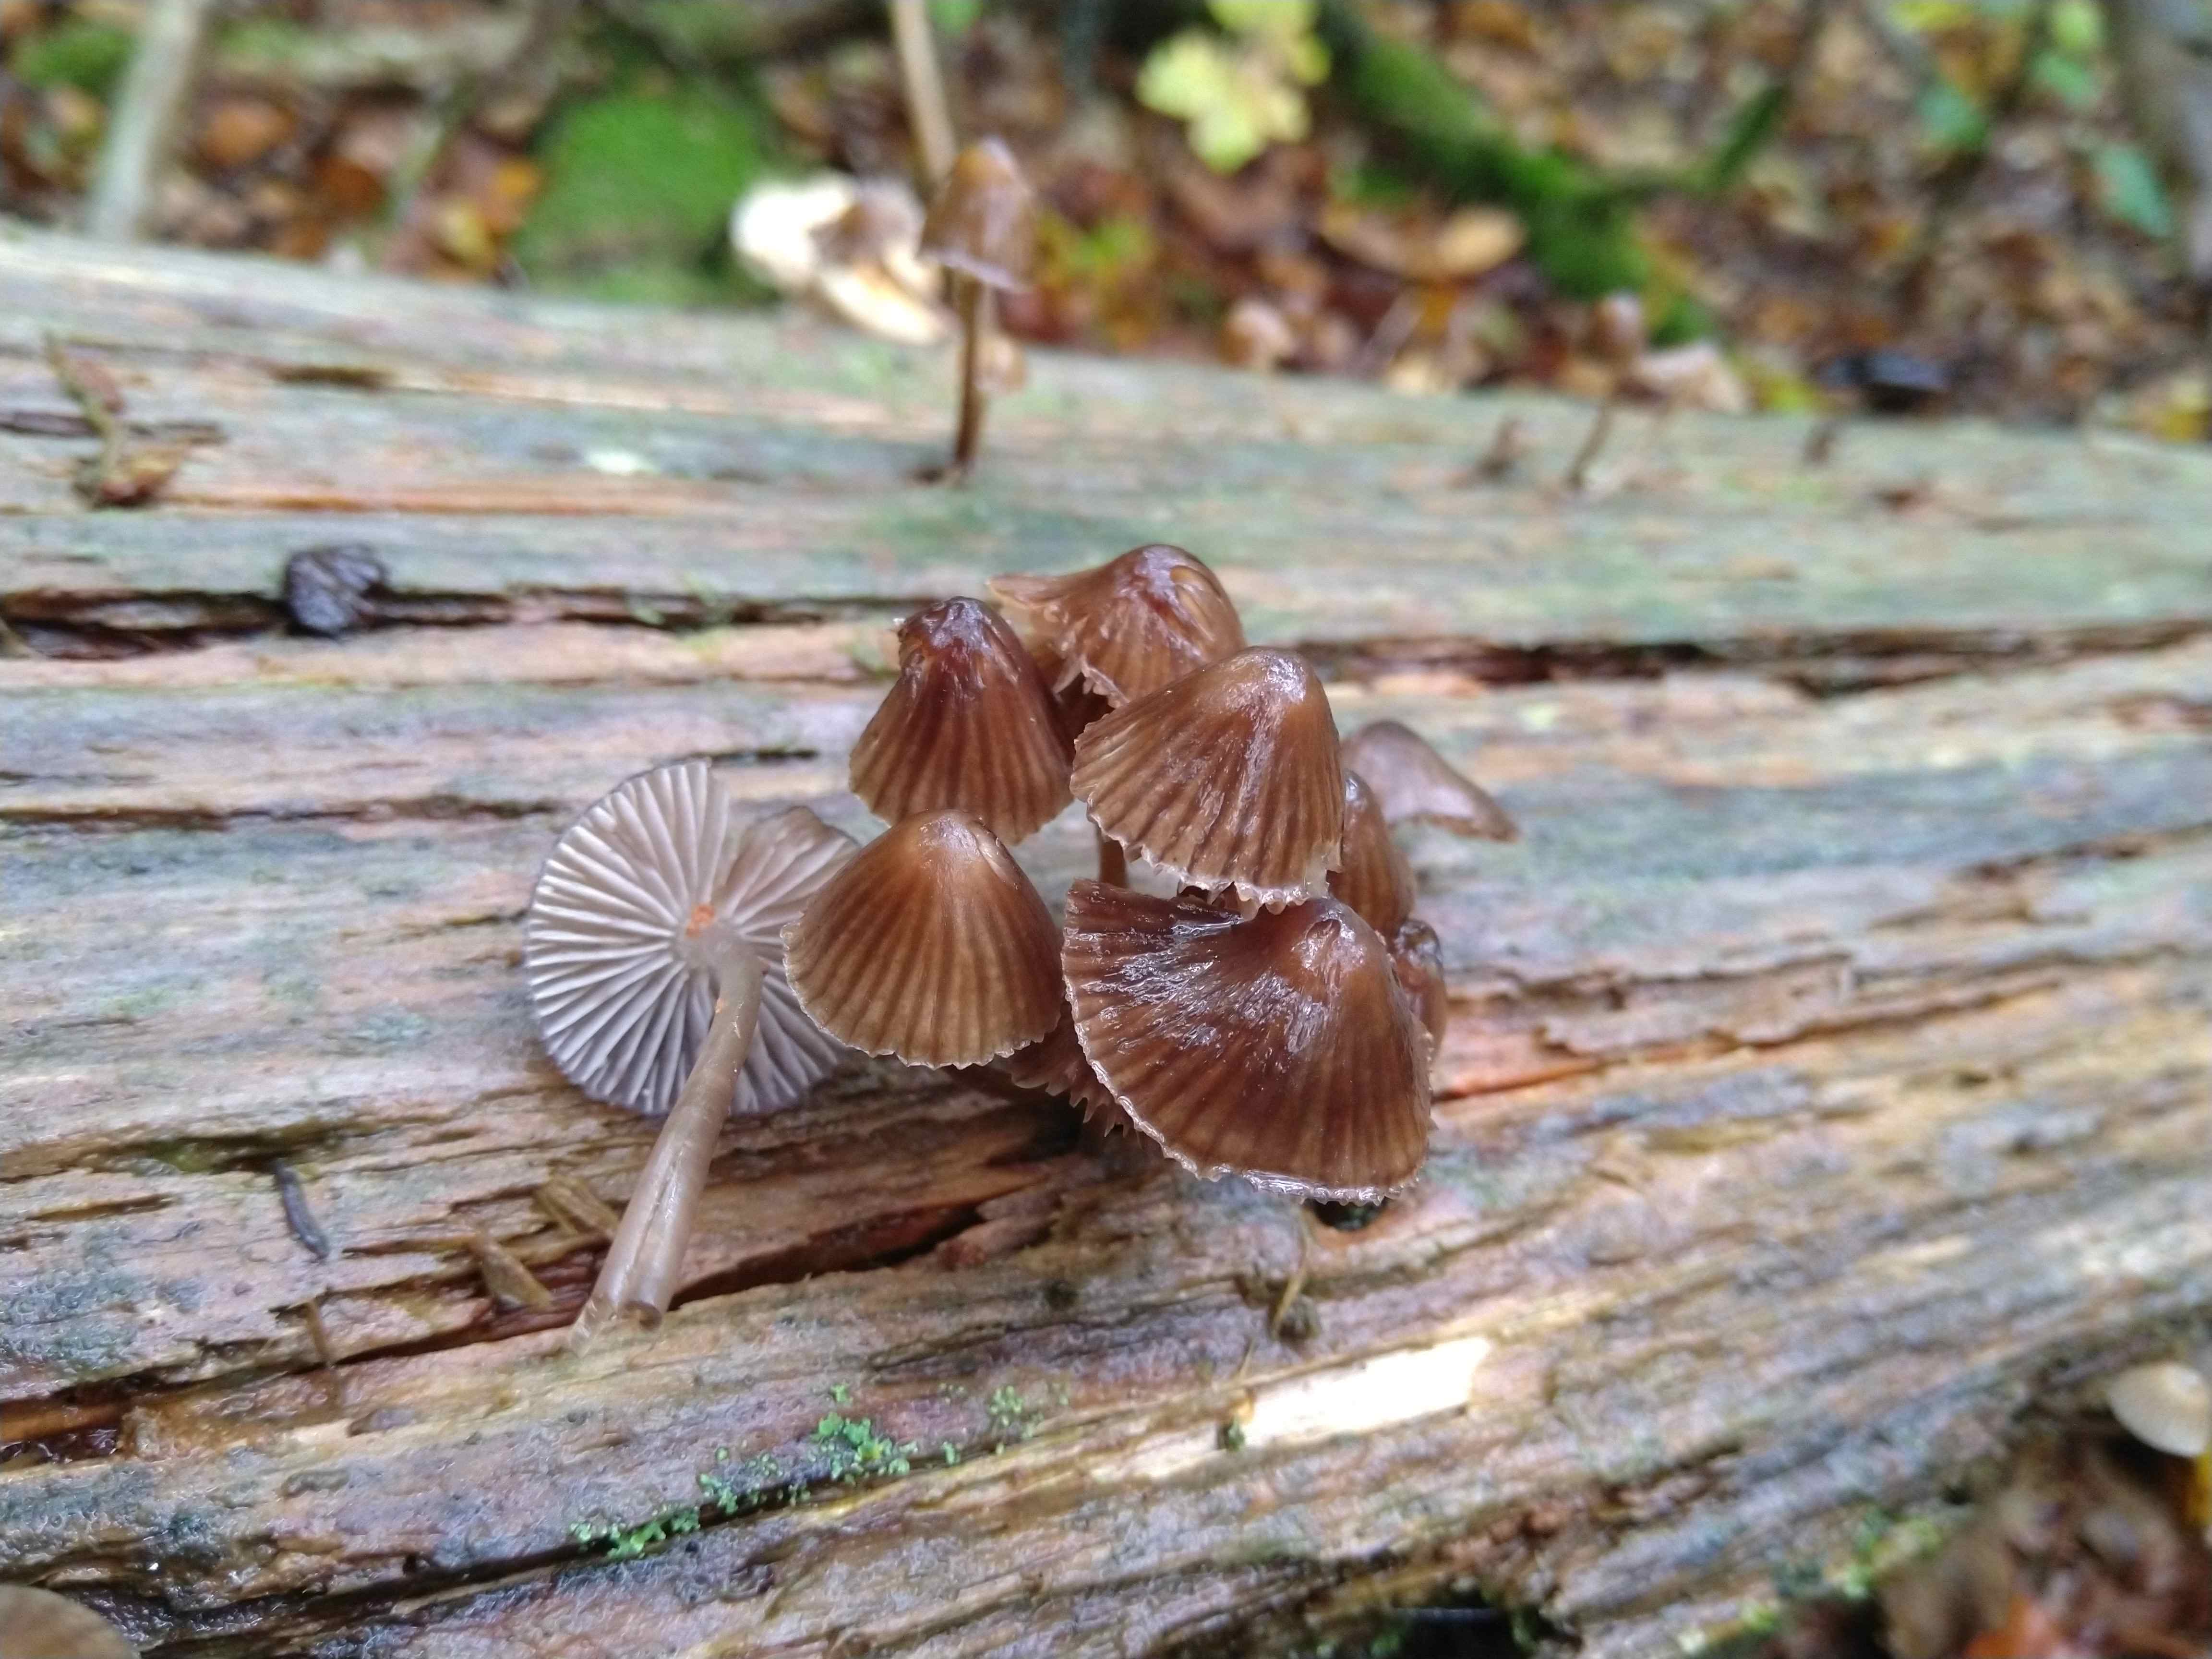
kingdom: Fungi
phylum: Basidiomycota
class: Agaricomycetes
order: Agaricales
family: Mycenaceae
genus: Mycena
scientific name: Mycena stipata
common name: stinkende huesvamp
